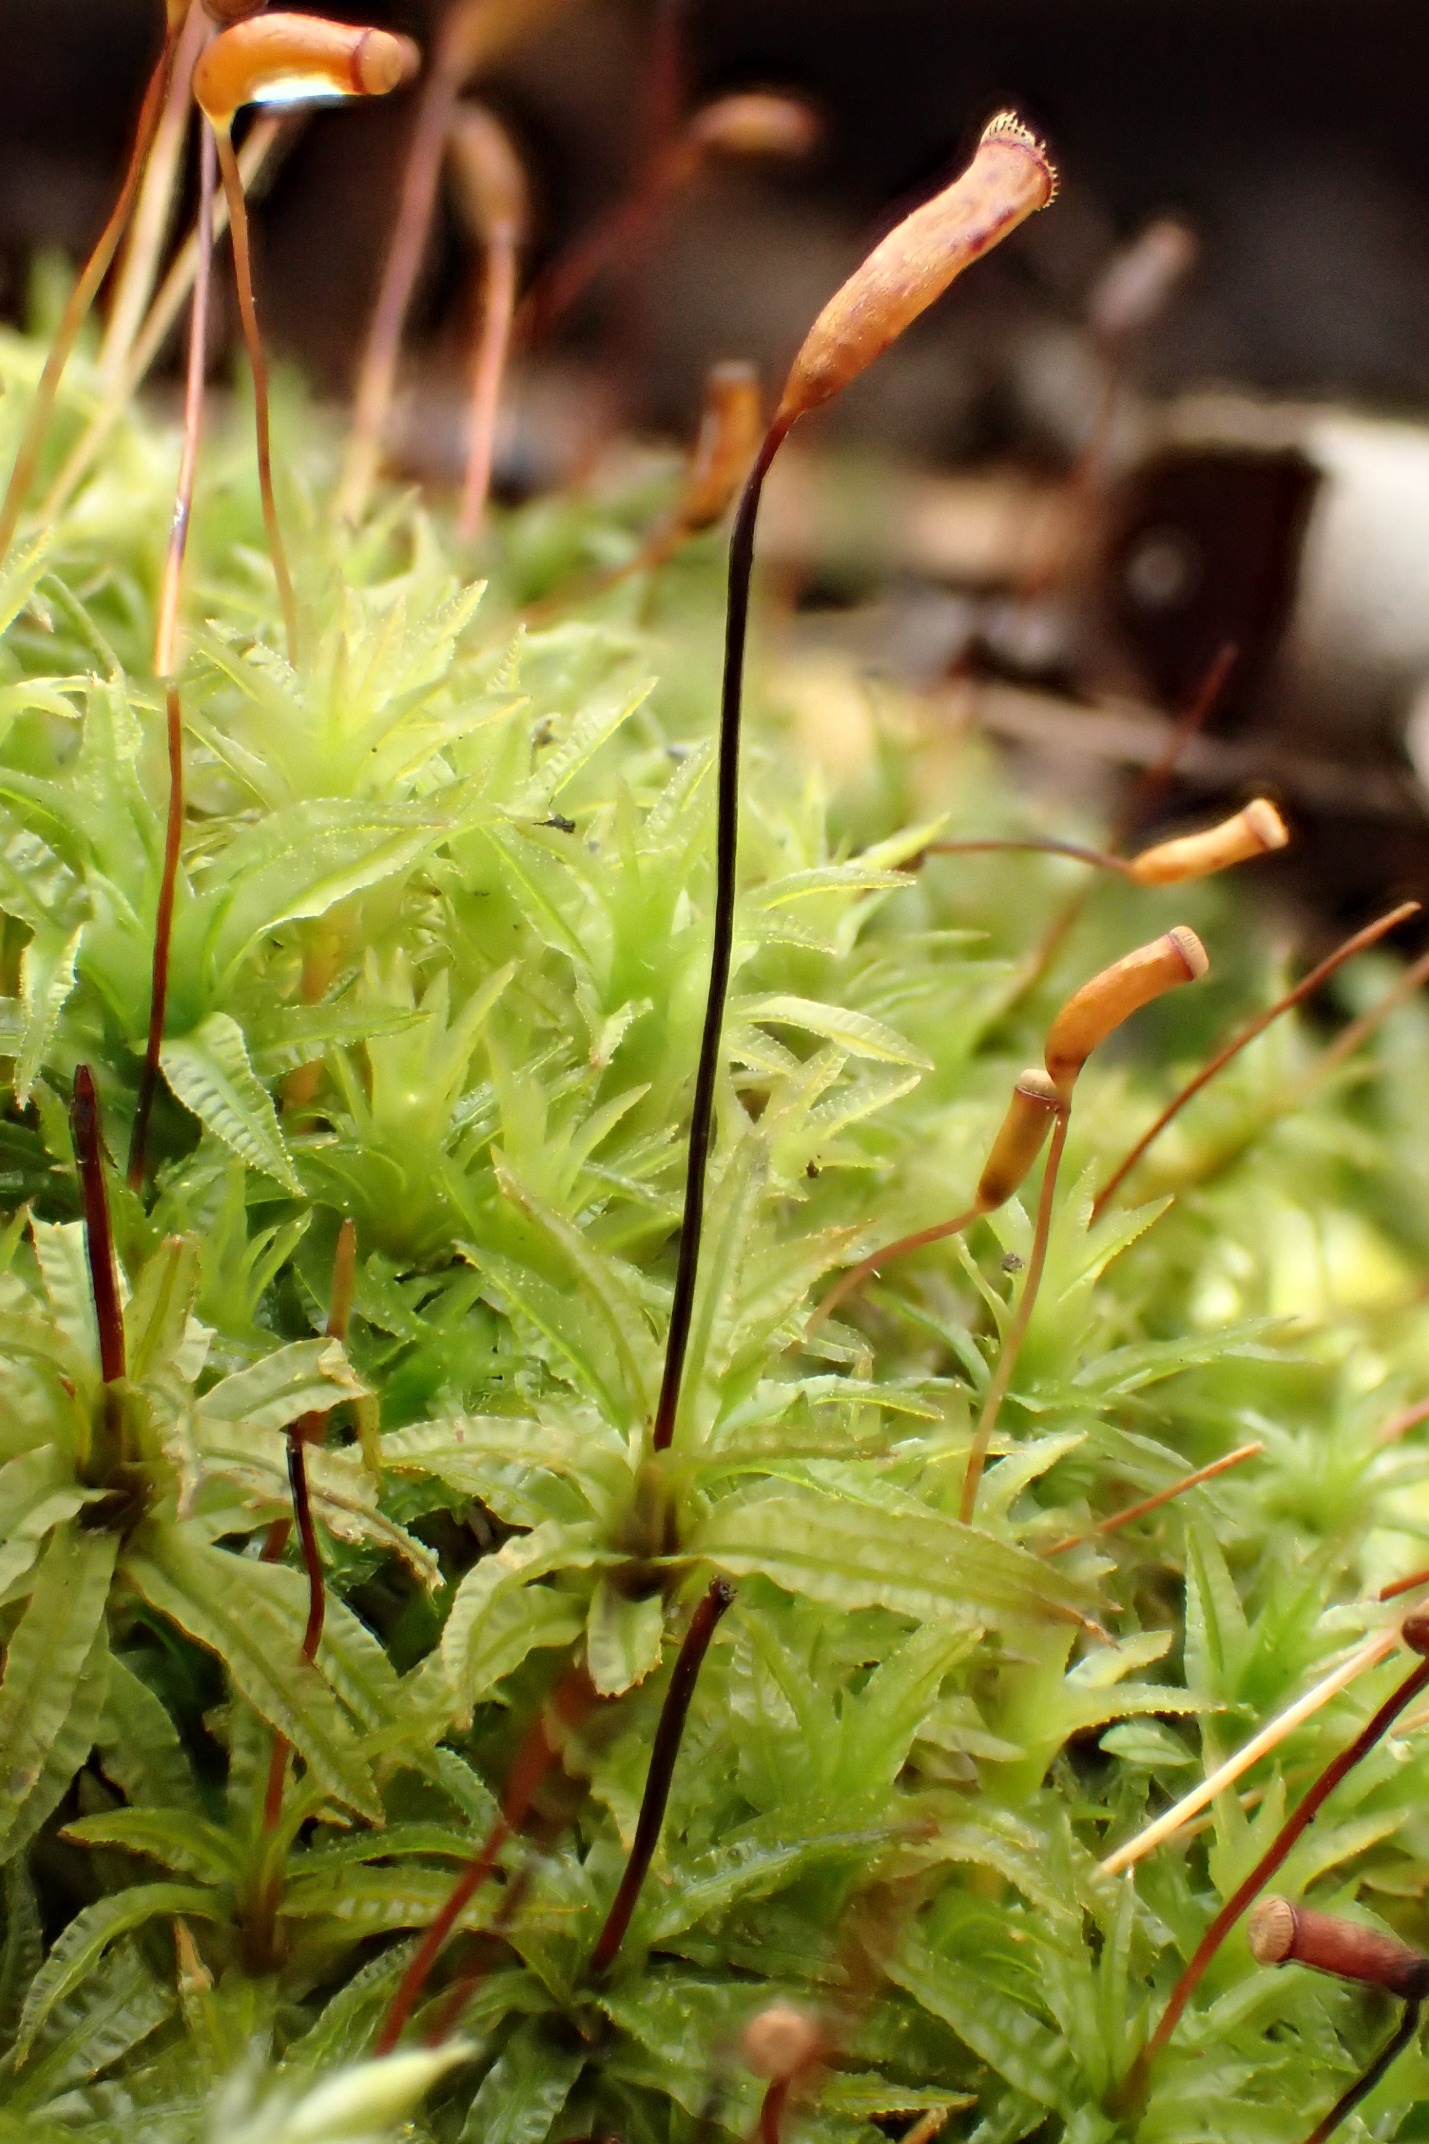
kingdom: Plantae
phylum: Bryophyta
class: Polytrichopsida
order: Polytrichales
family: Polytrichaceae
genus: Atrichum
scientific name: Atrichum undulatum
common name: Bølget katrinemos
